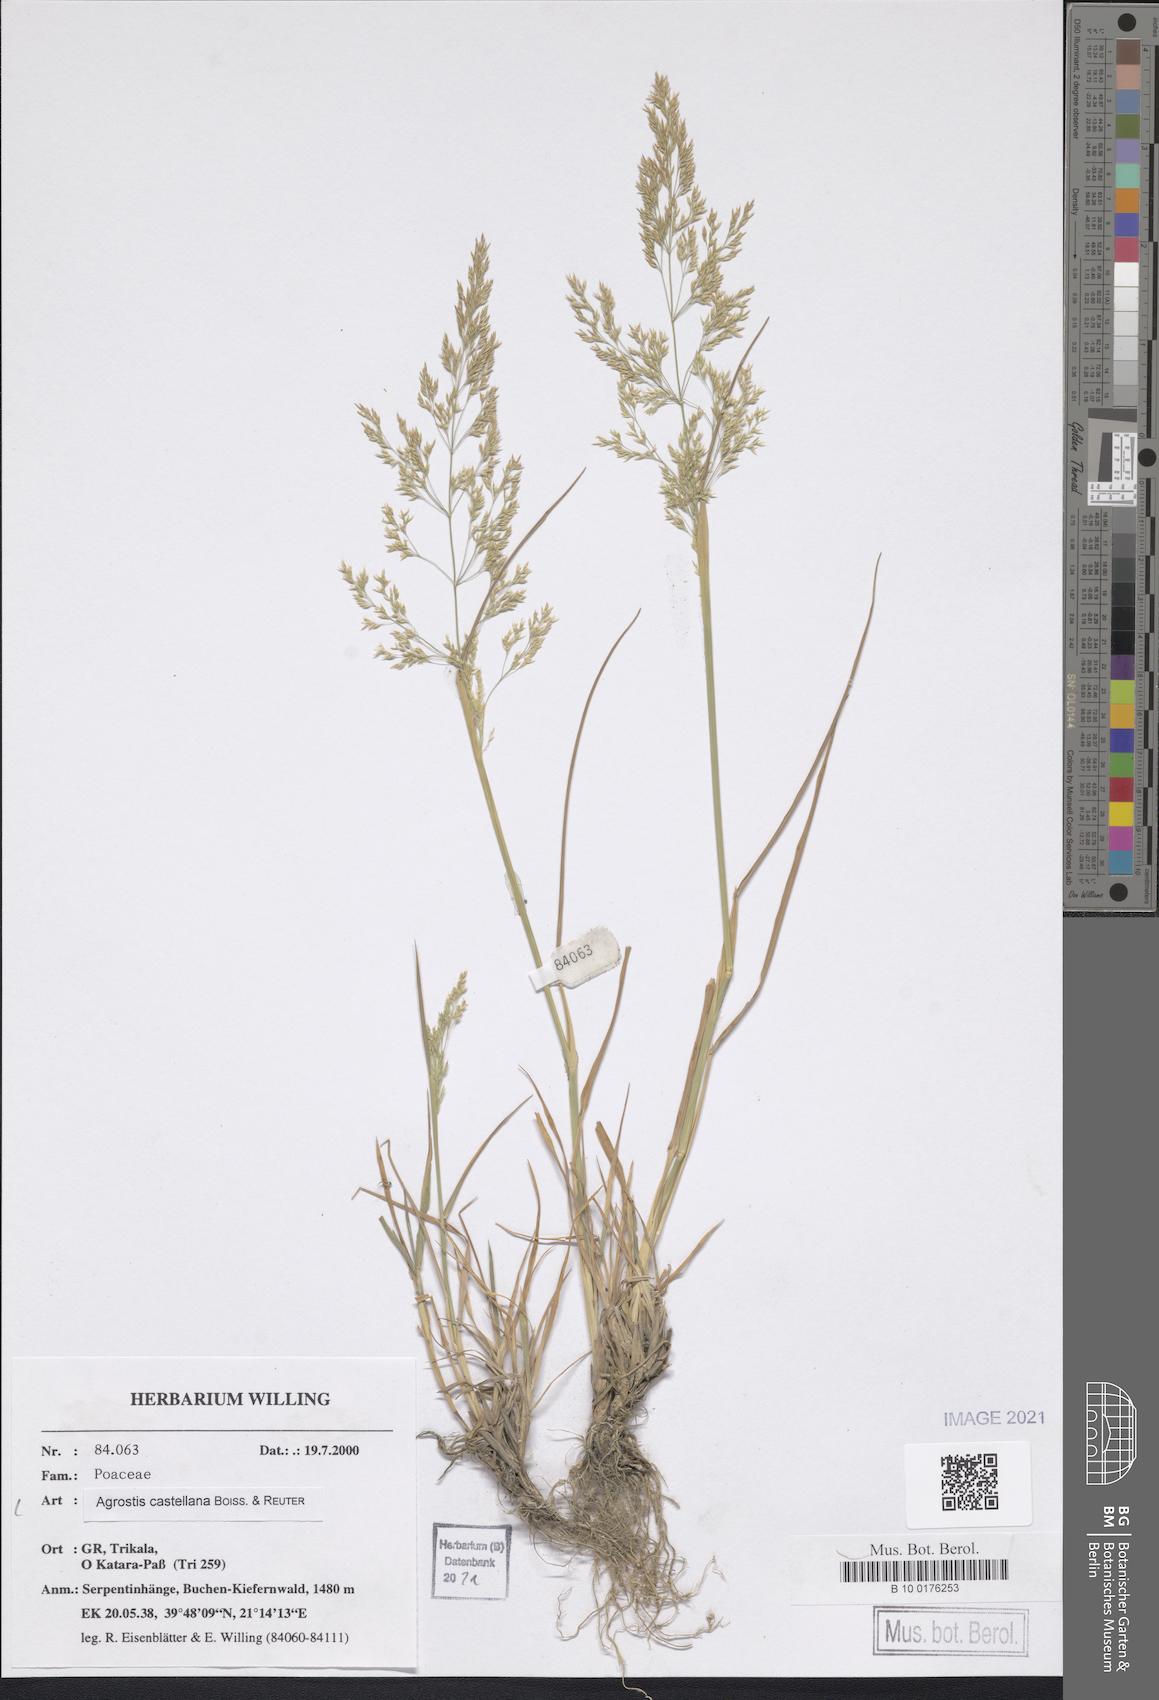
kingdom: Plantae
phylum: Tracheophyta
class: Liliopsida
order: Poales
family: Poaceae
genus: Agrostis
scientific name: Agrostis castellana
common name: Highland bent
